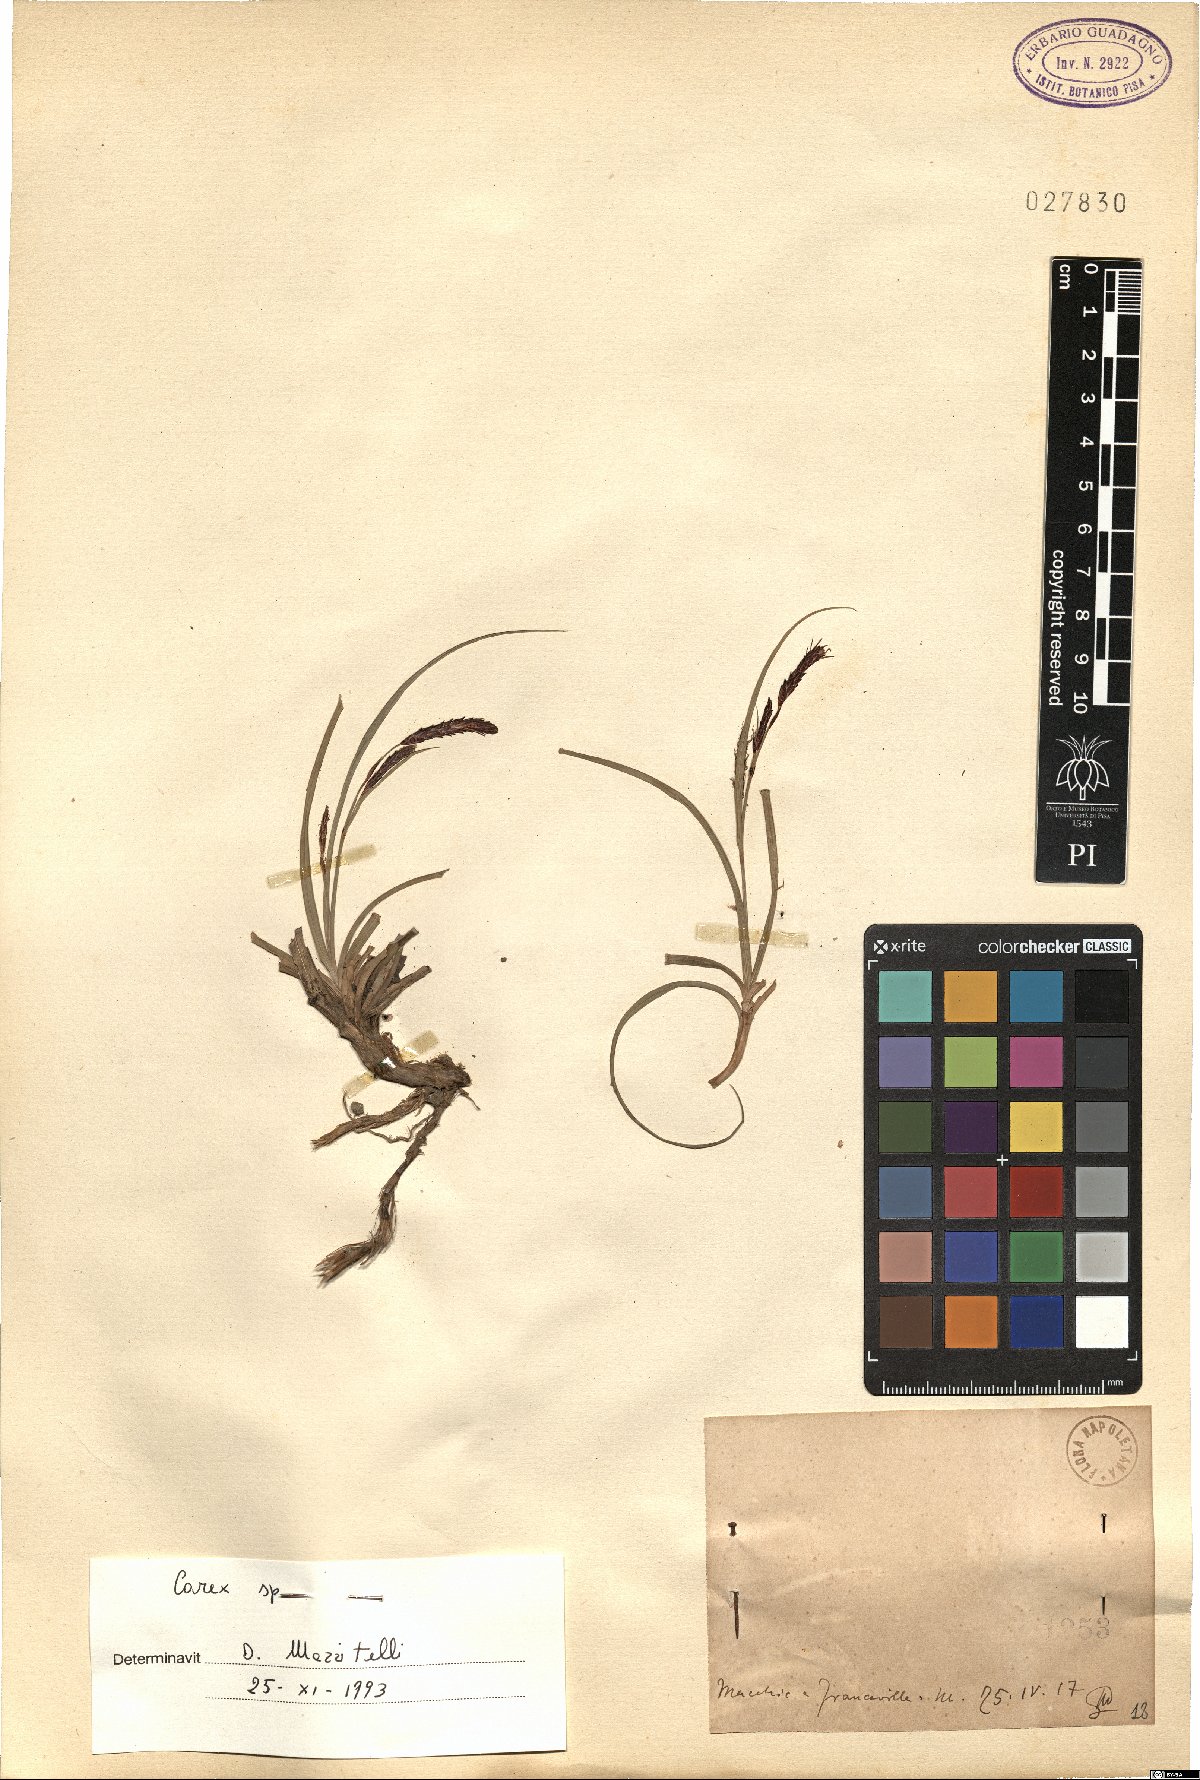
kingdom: Plantae
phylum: Tracheophyta
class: Liliopsida
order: Poales
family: Cyperaceae
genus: Carex
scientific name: Carex
